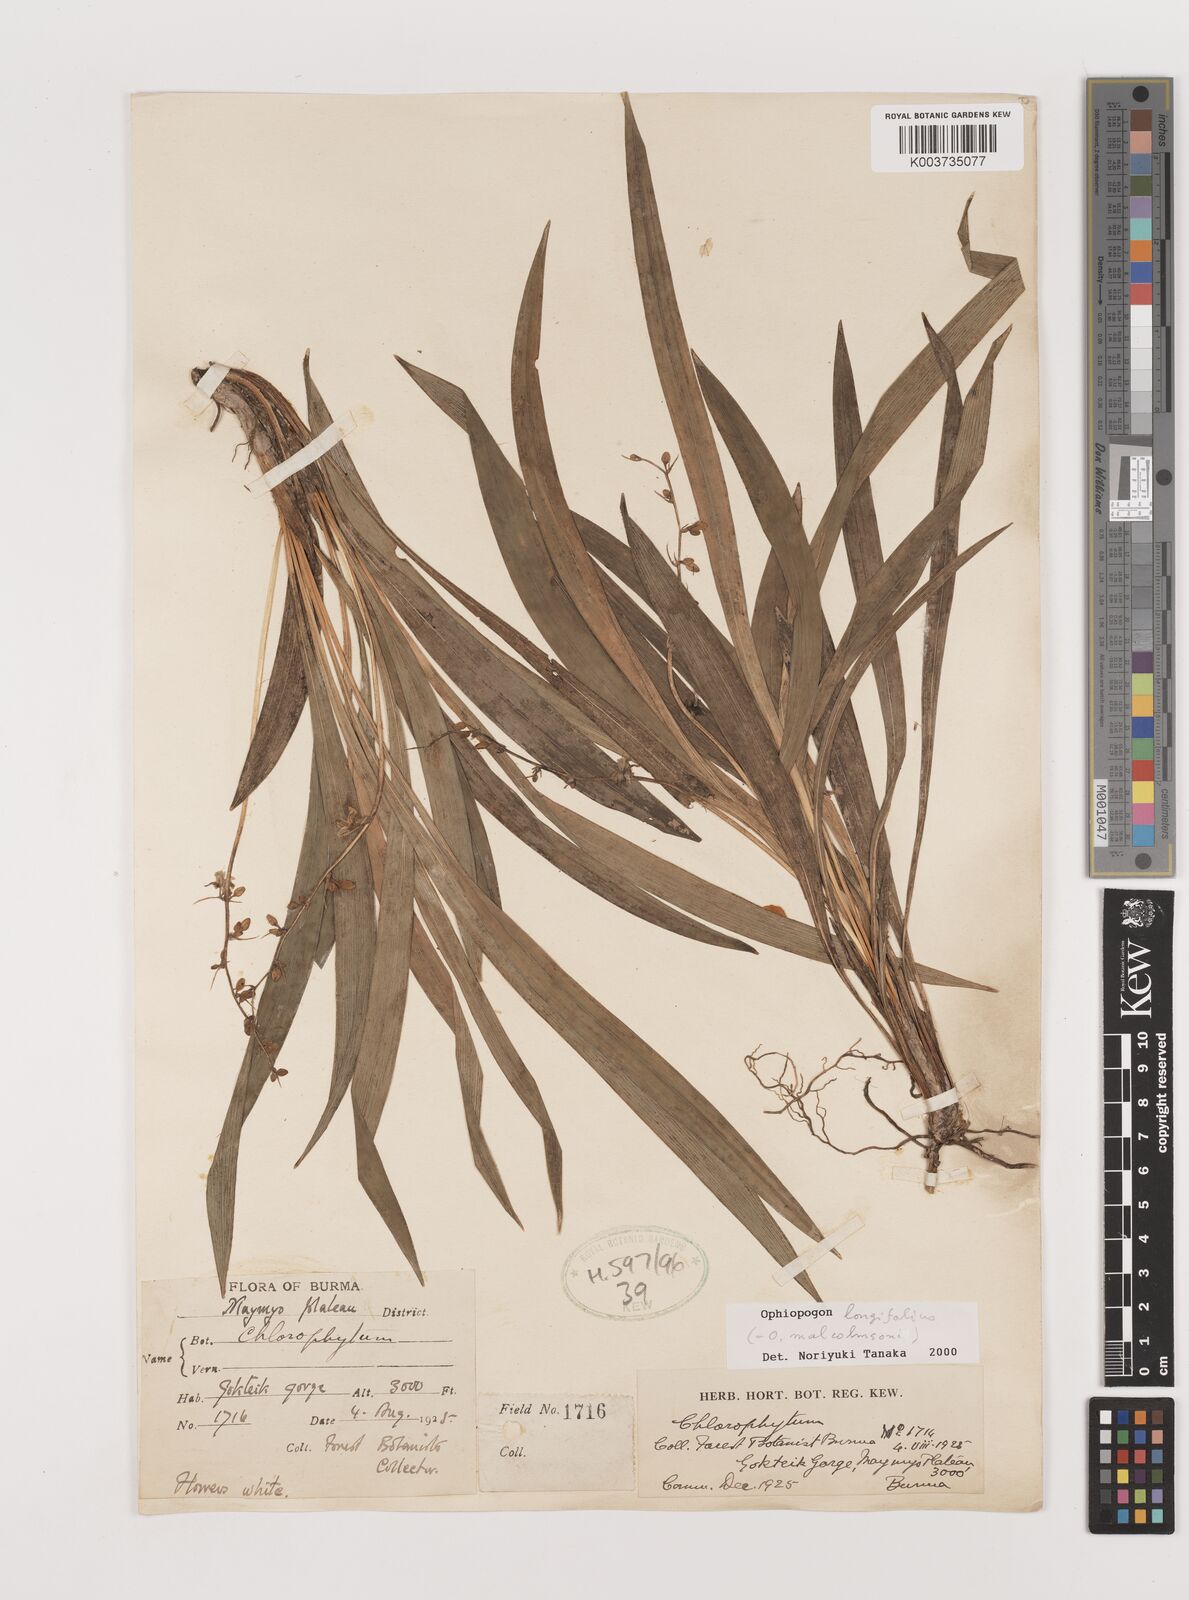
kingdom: Plantae
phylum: Tracheophyta
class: Liliopsida
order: Asparagales
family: Asparagaceae
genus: Ophiopogon
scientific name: Ophiopogon longifolius
